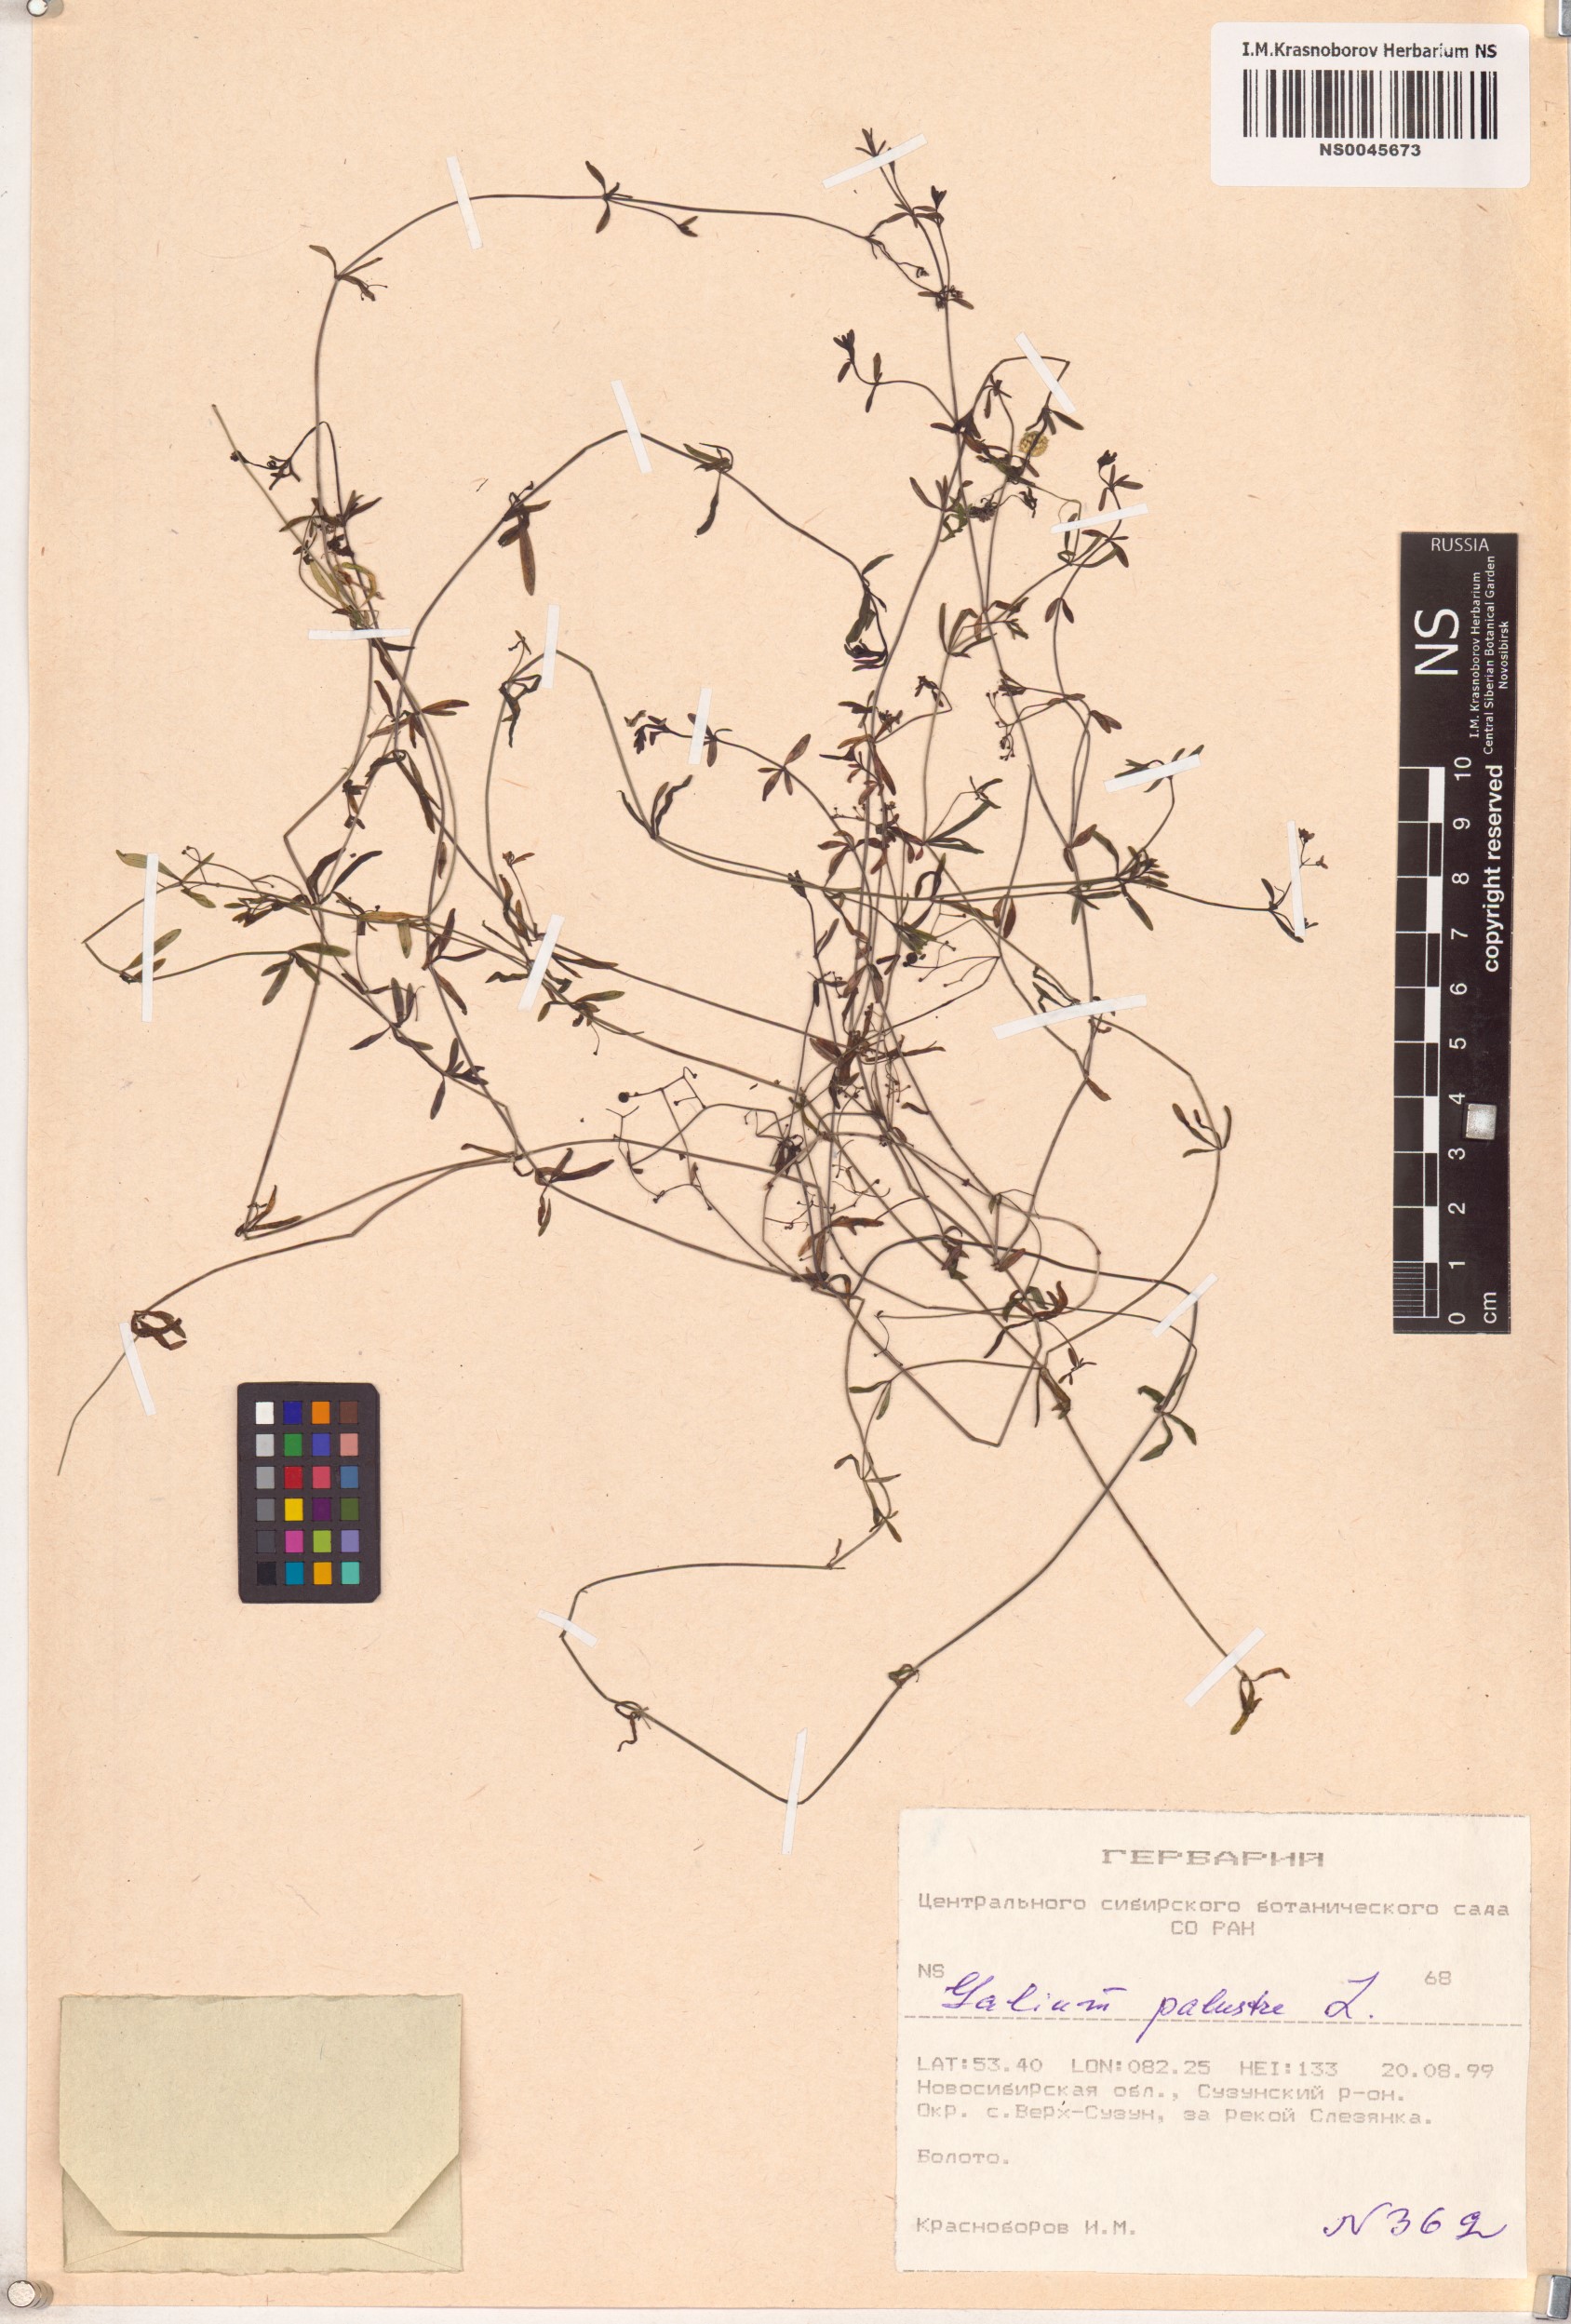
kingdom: Plantae
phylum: Tracheophyta
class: Magnoliopsida
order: Gentianales
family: Rubiaceae
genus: Galium
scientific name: Galium palustre
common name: Common marsh-bedstraw
